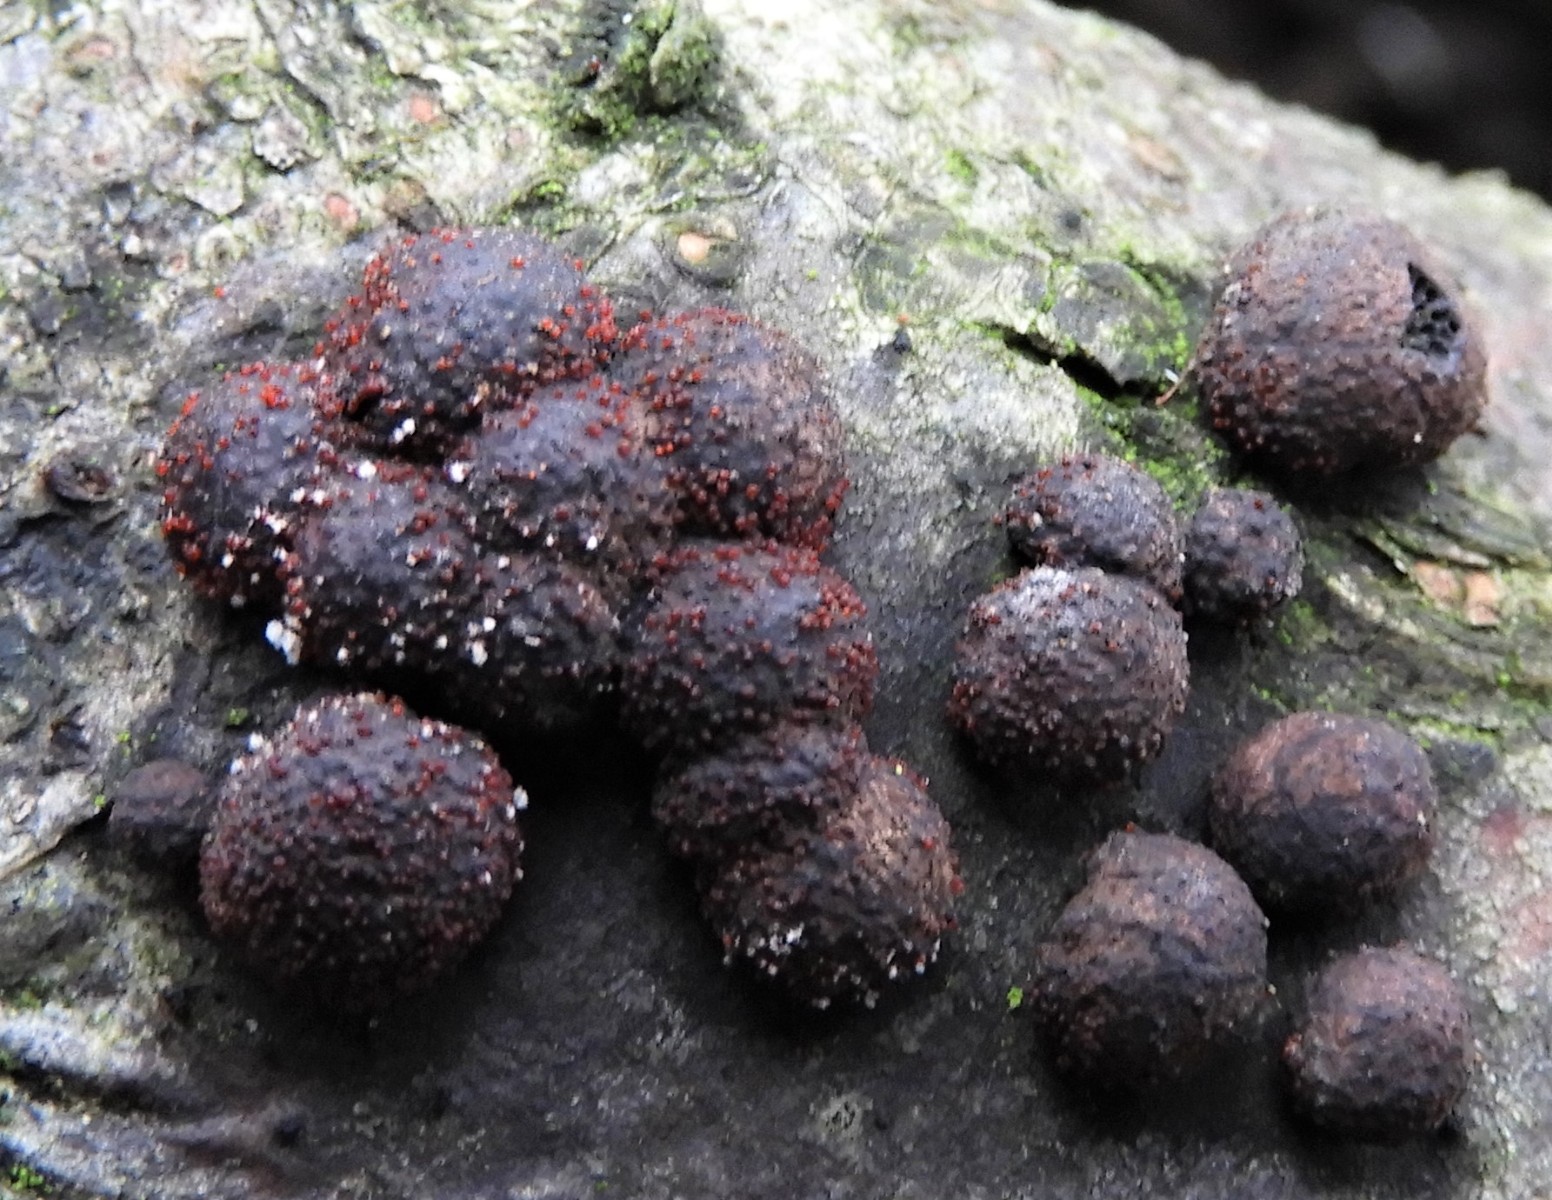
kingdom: Fungi
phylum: Ascomycota
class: Sordariomycetes
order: Hypocreales
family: Nectriaceae
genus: Cosmospora
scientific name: Cosmospora arxii
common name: kuljordbær-cinnobersvamp
